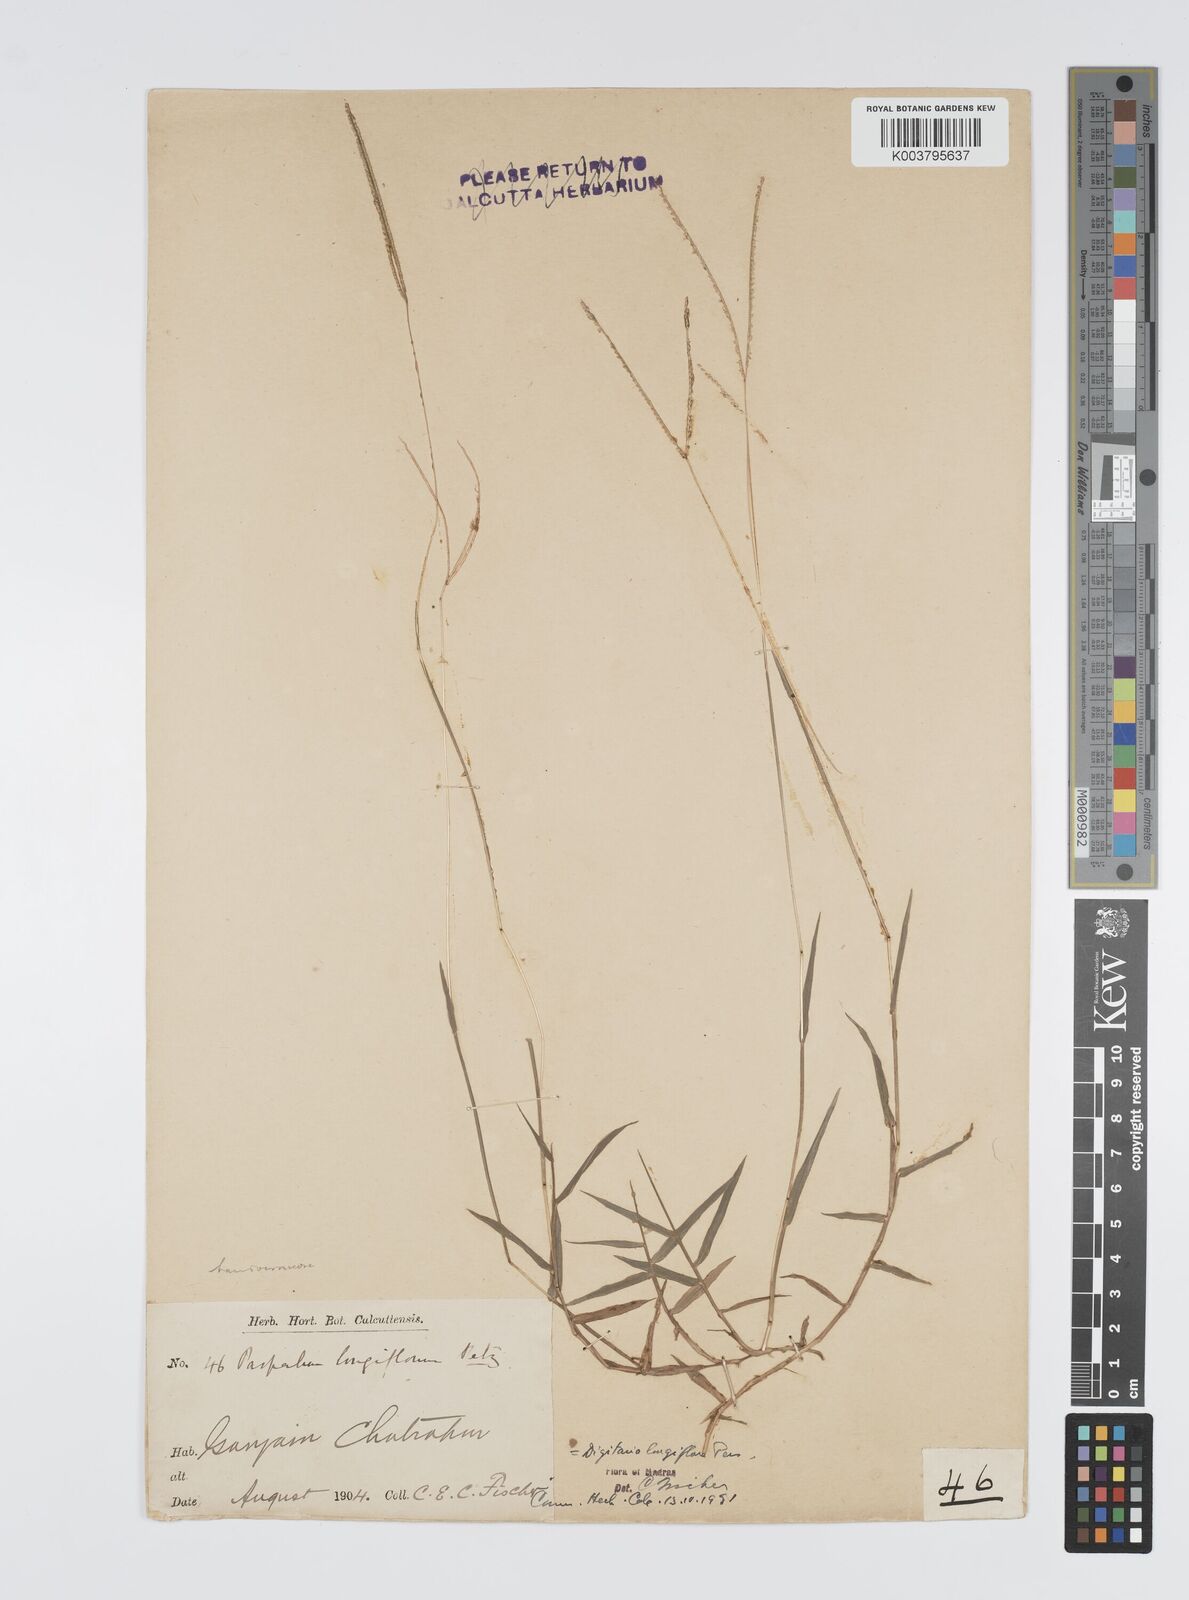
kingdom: Plantae
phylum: Tracheophyta
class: Liliopsida
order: Poales
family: Poaceae
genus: Digitaria
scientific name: Digitaria longiflora
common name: Wire crabgrass
